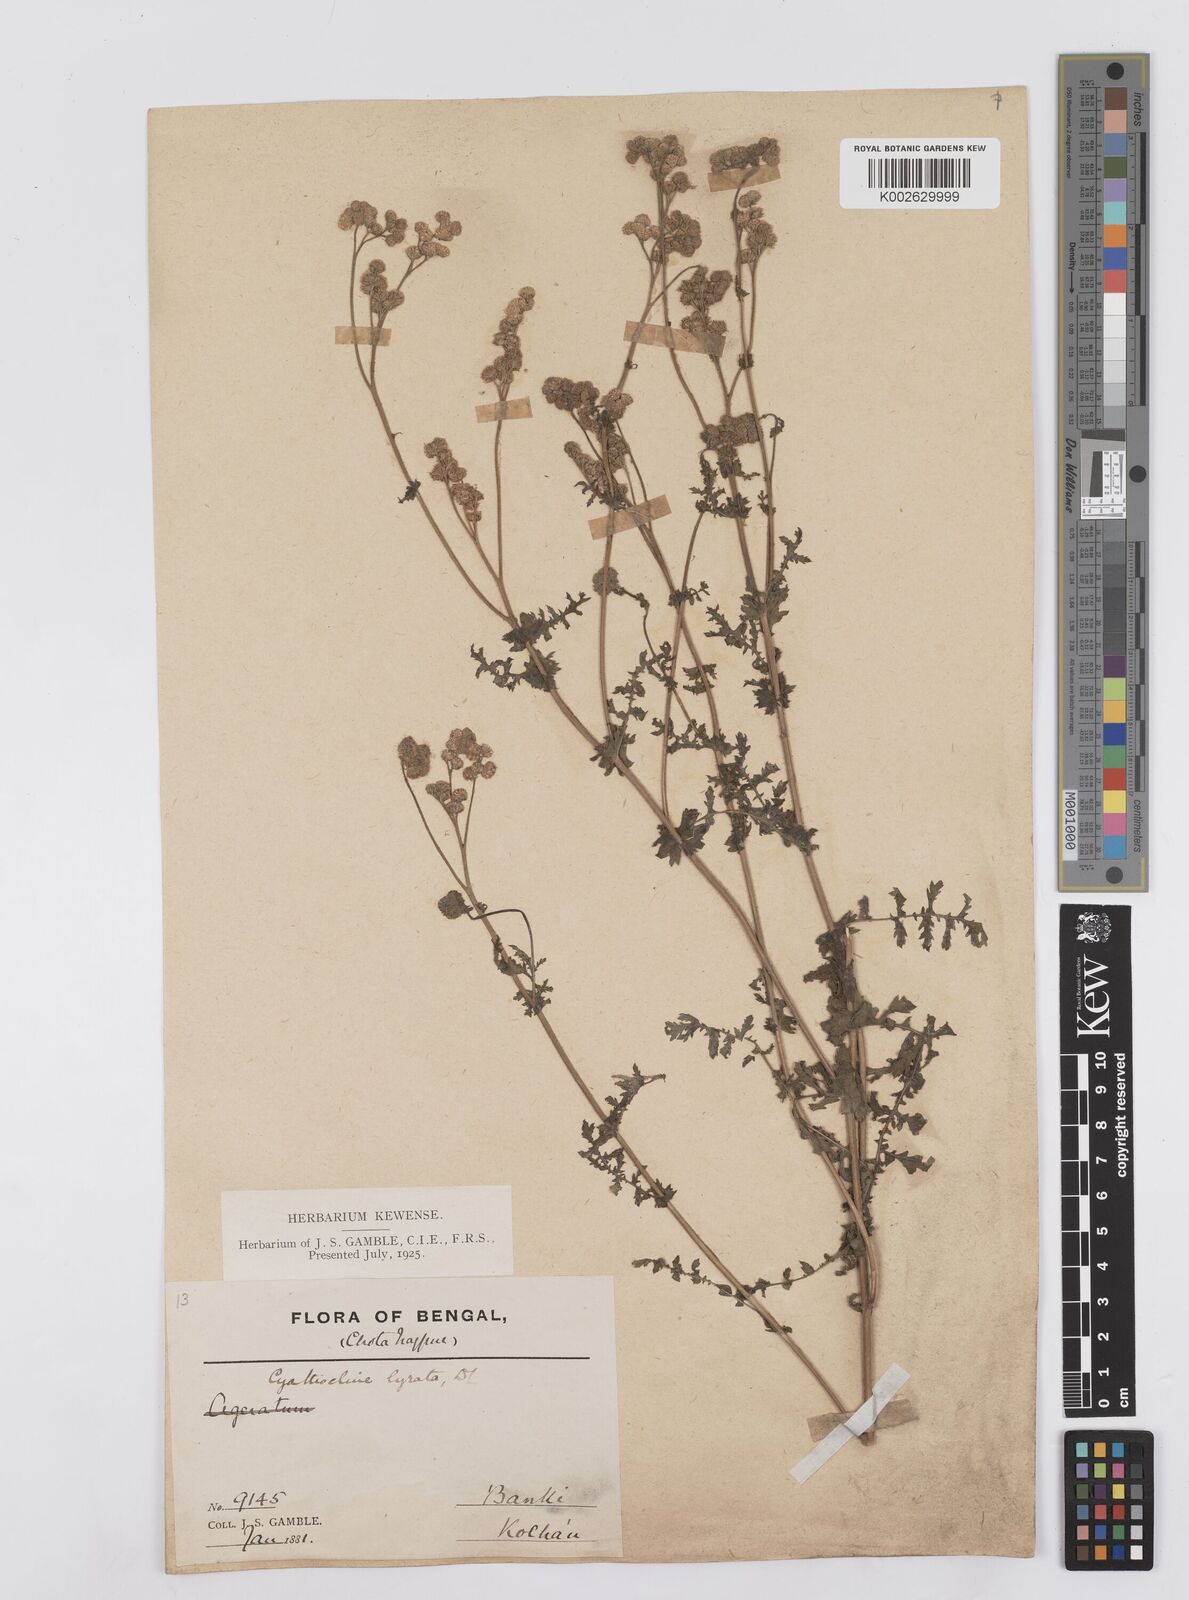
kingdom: Plantae
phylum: Tracheophyta
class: Magnoliopsida
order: Asterales
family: Asteraceae
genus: Cyathocline
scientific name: Cyathocline purpurea
